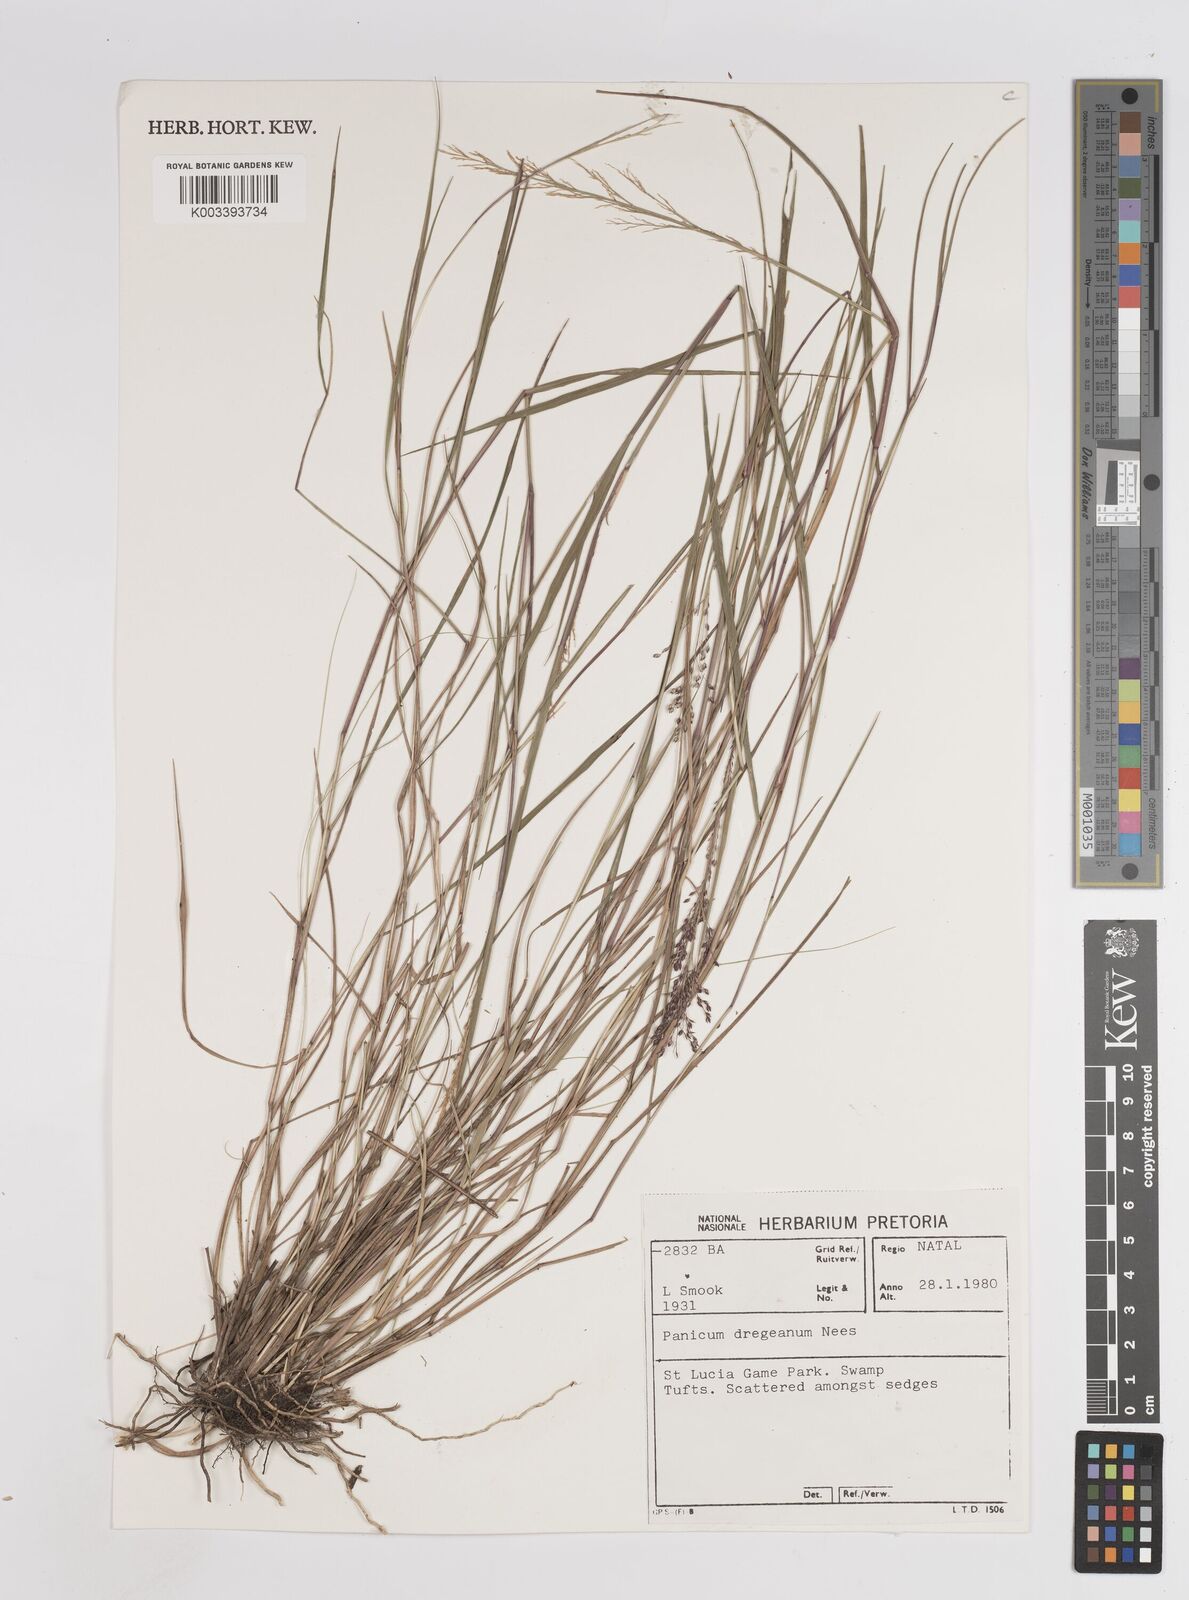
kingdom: Plantae
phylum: Tracheophyta
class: Liliopsida
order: Poales
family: Poaceae
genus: Panicum
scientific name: Panicum dregeanum
